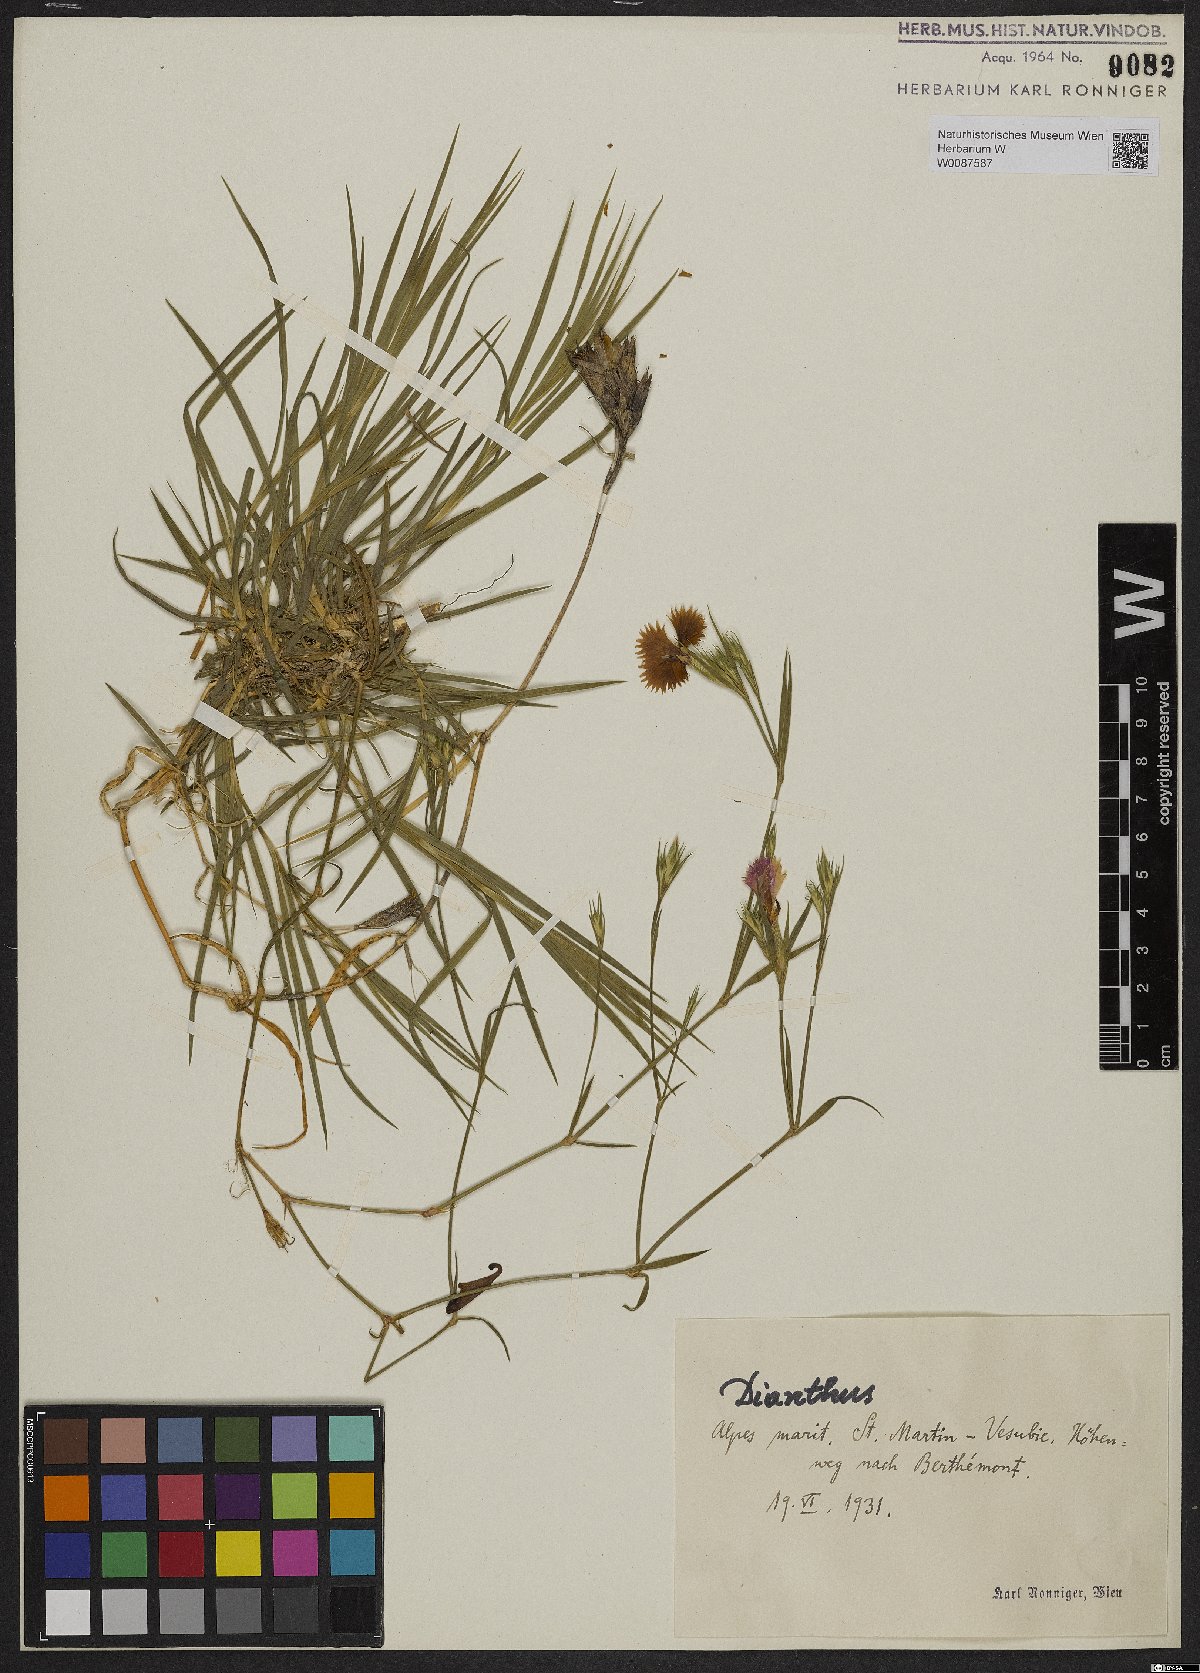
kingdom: Plantae
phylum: Tracheophyta
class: Magnoliopsida
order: Caryophyllales
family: Caryophyllaceae
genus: Dianthus
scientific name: Dianthus
